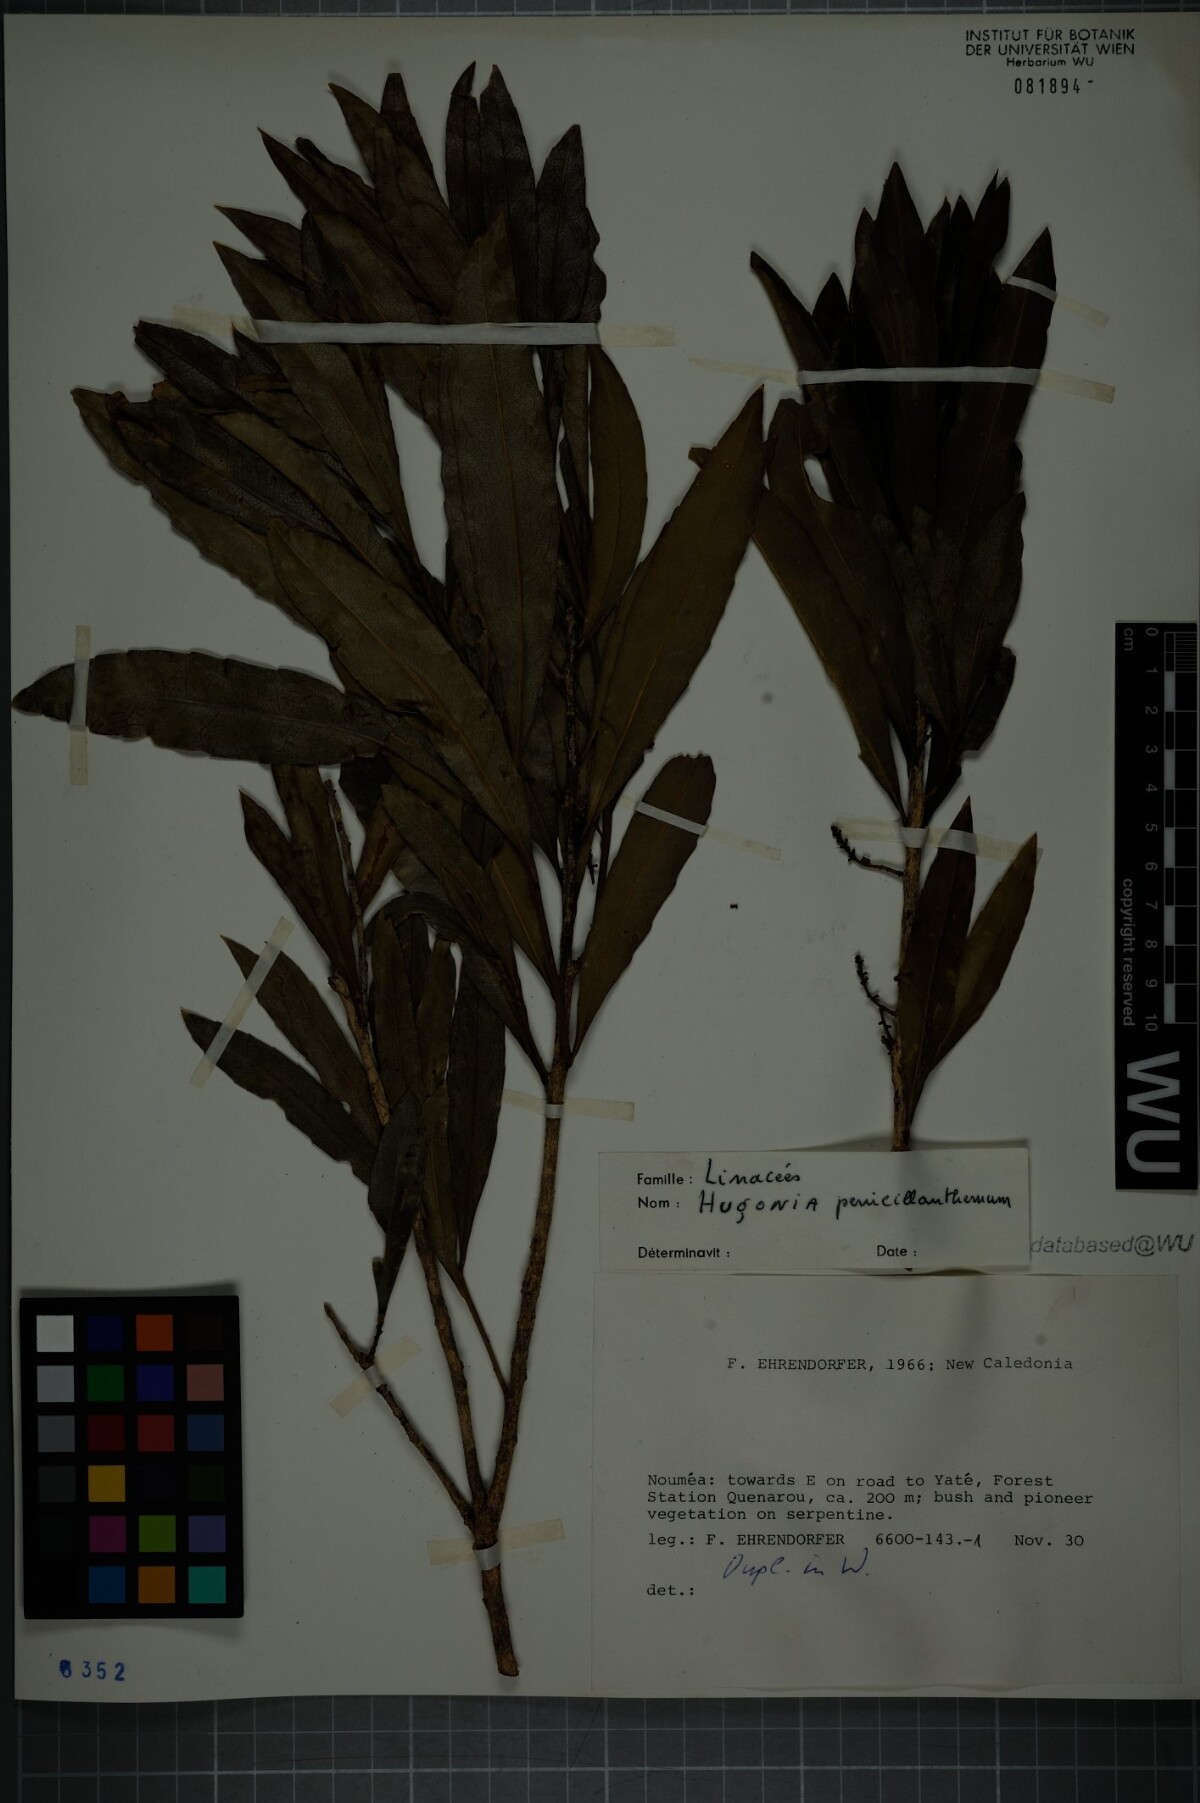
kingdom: Plantae
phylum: Tracheophyta
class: Magnoliopsida
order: Malpighiales
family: Linaceae
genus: Hugonia
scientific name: Hugonia penicillanthemum
